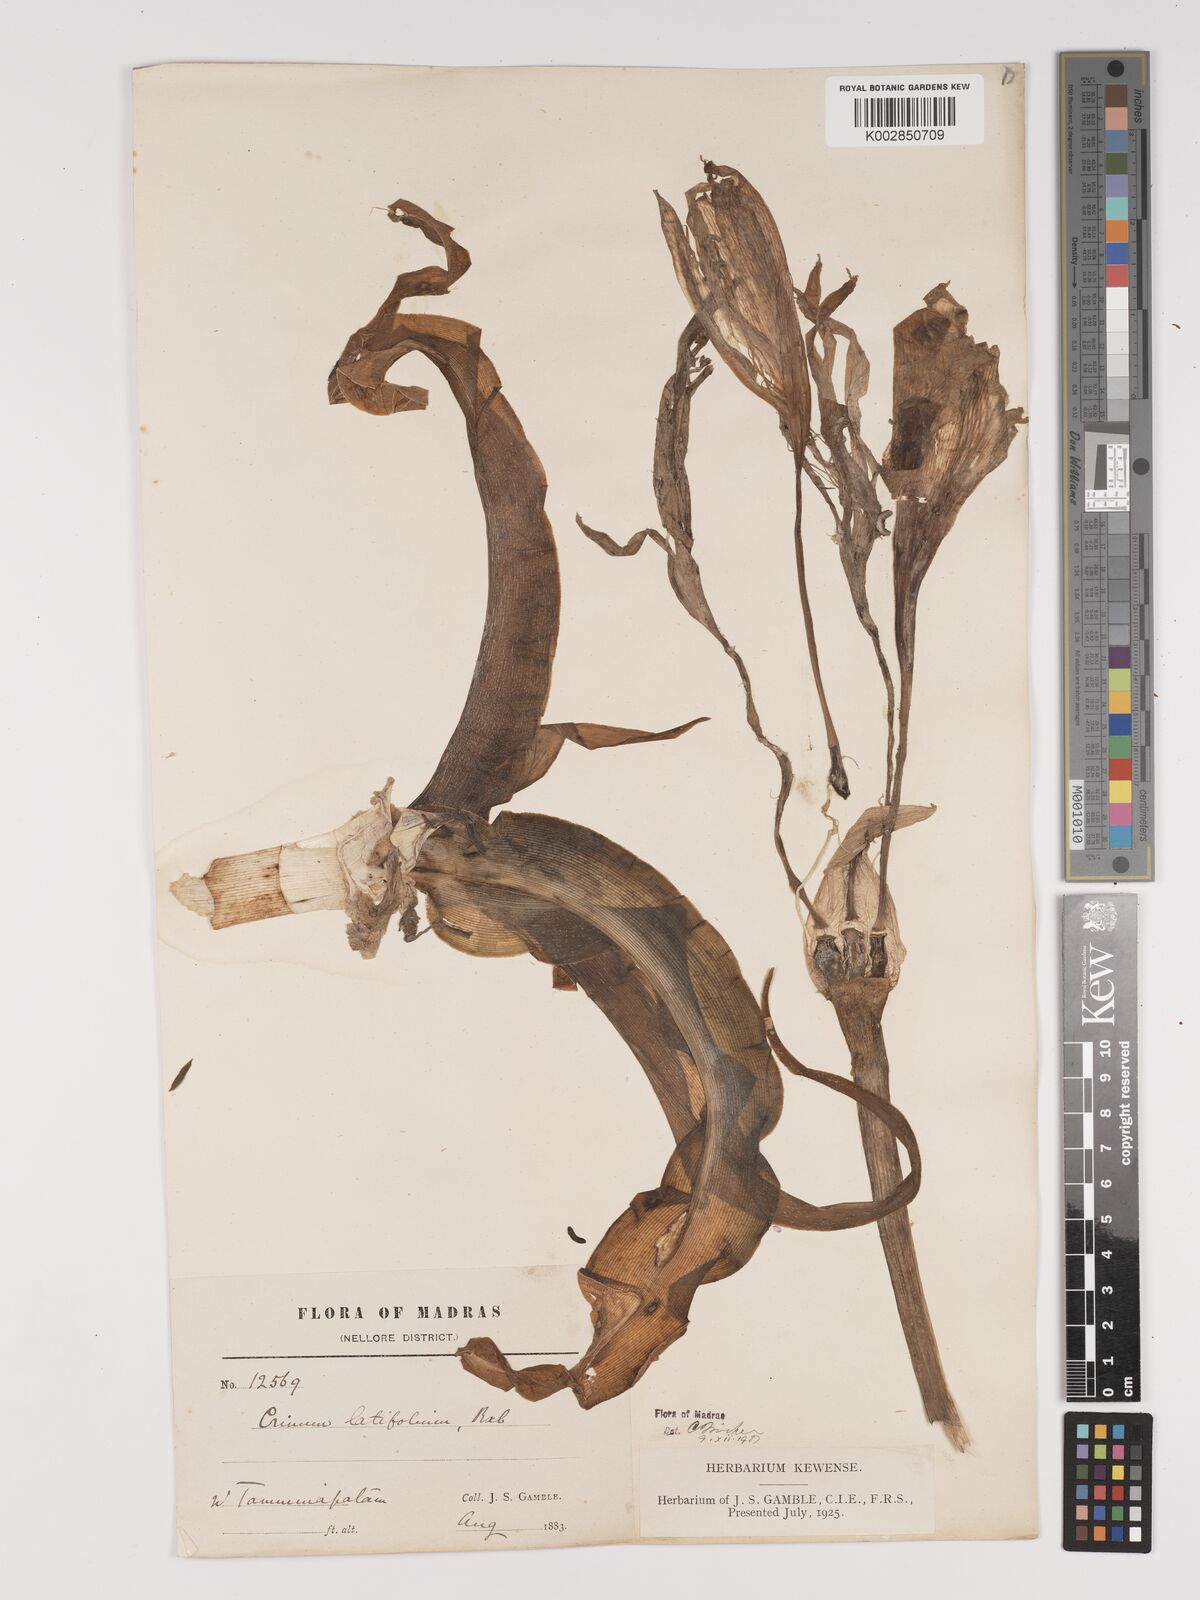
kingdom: Plantae
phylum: Tracheophyta
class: Liliopsida
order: Asparagales
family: Amaryllidaceae
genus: Crinum
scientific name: Crinum latifolium
